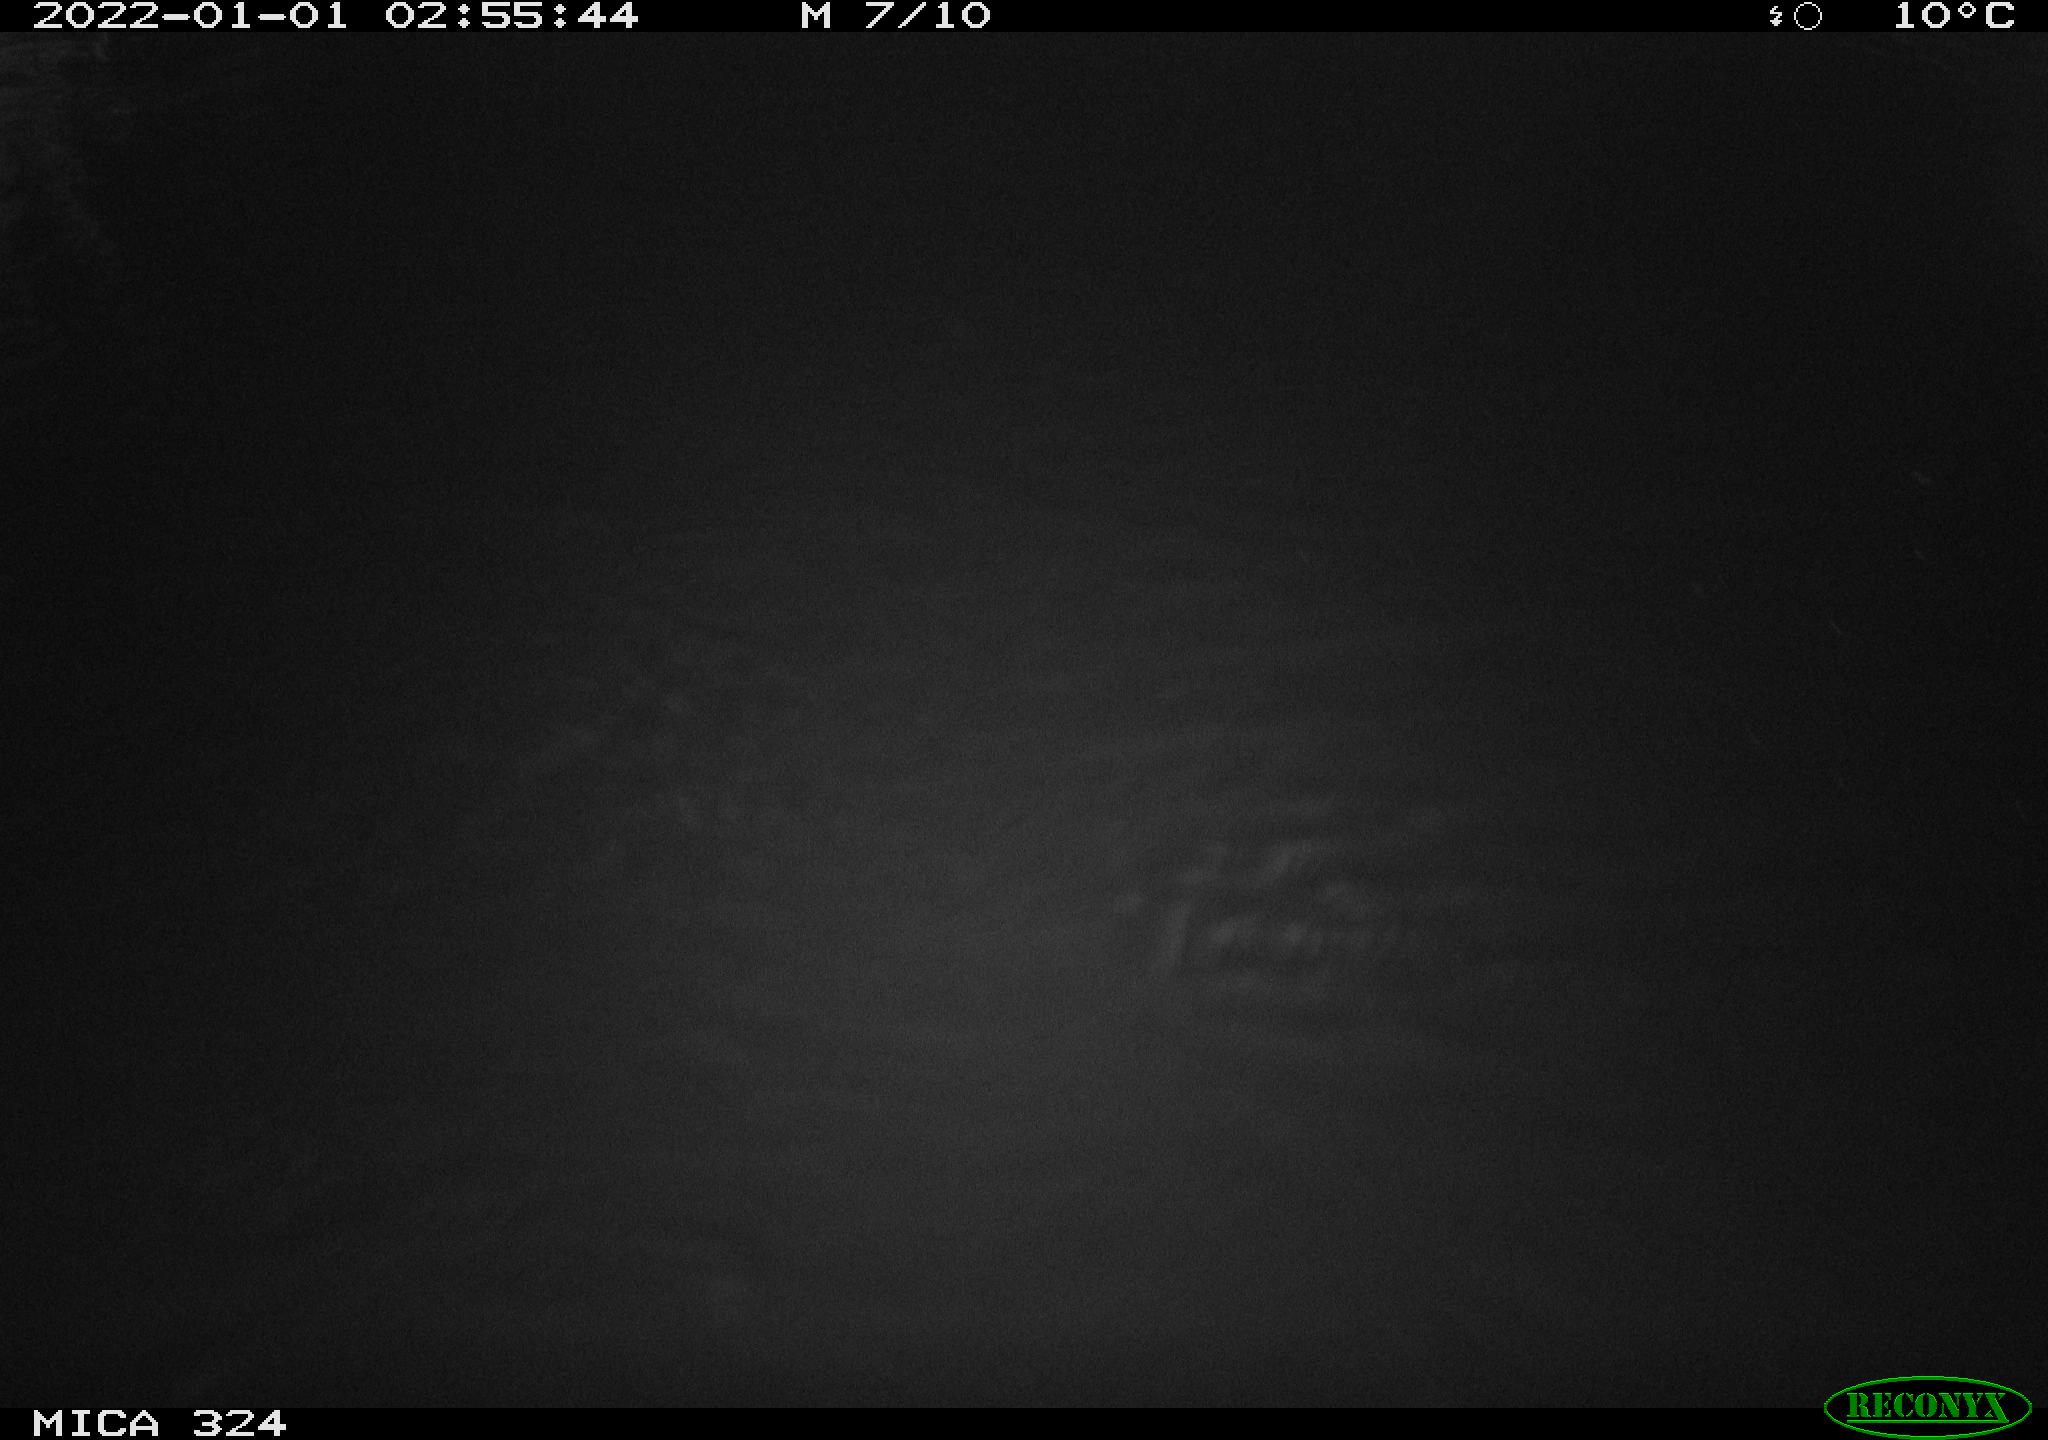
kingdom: Animalia
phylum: Chordata
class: Mammalia
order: Rodentia
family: Cricetidae
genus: Ondatra
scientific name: Ondatra zibethicus
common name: Muskrat
